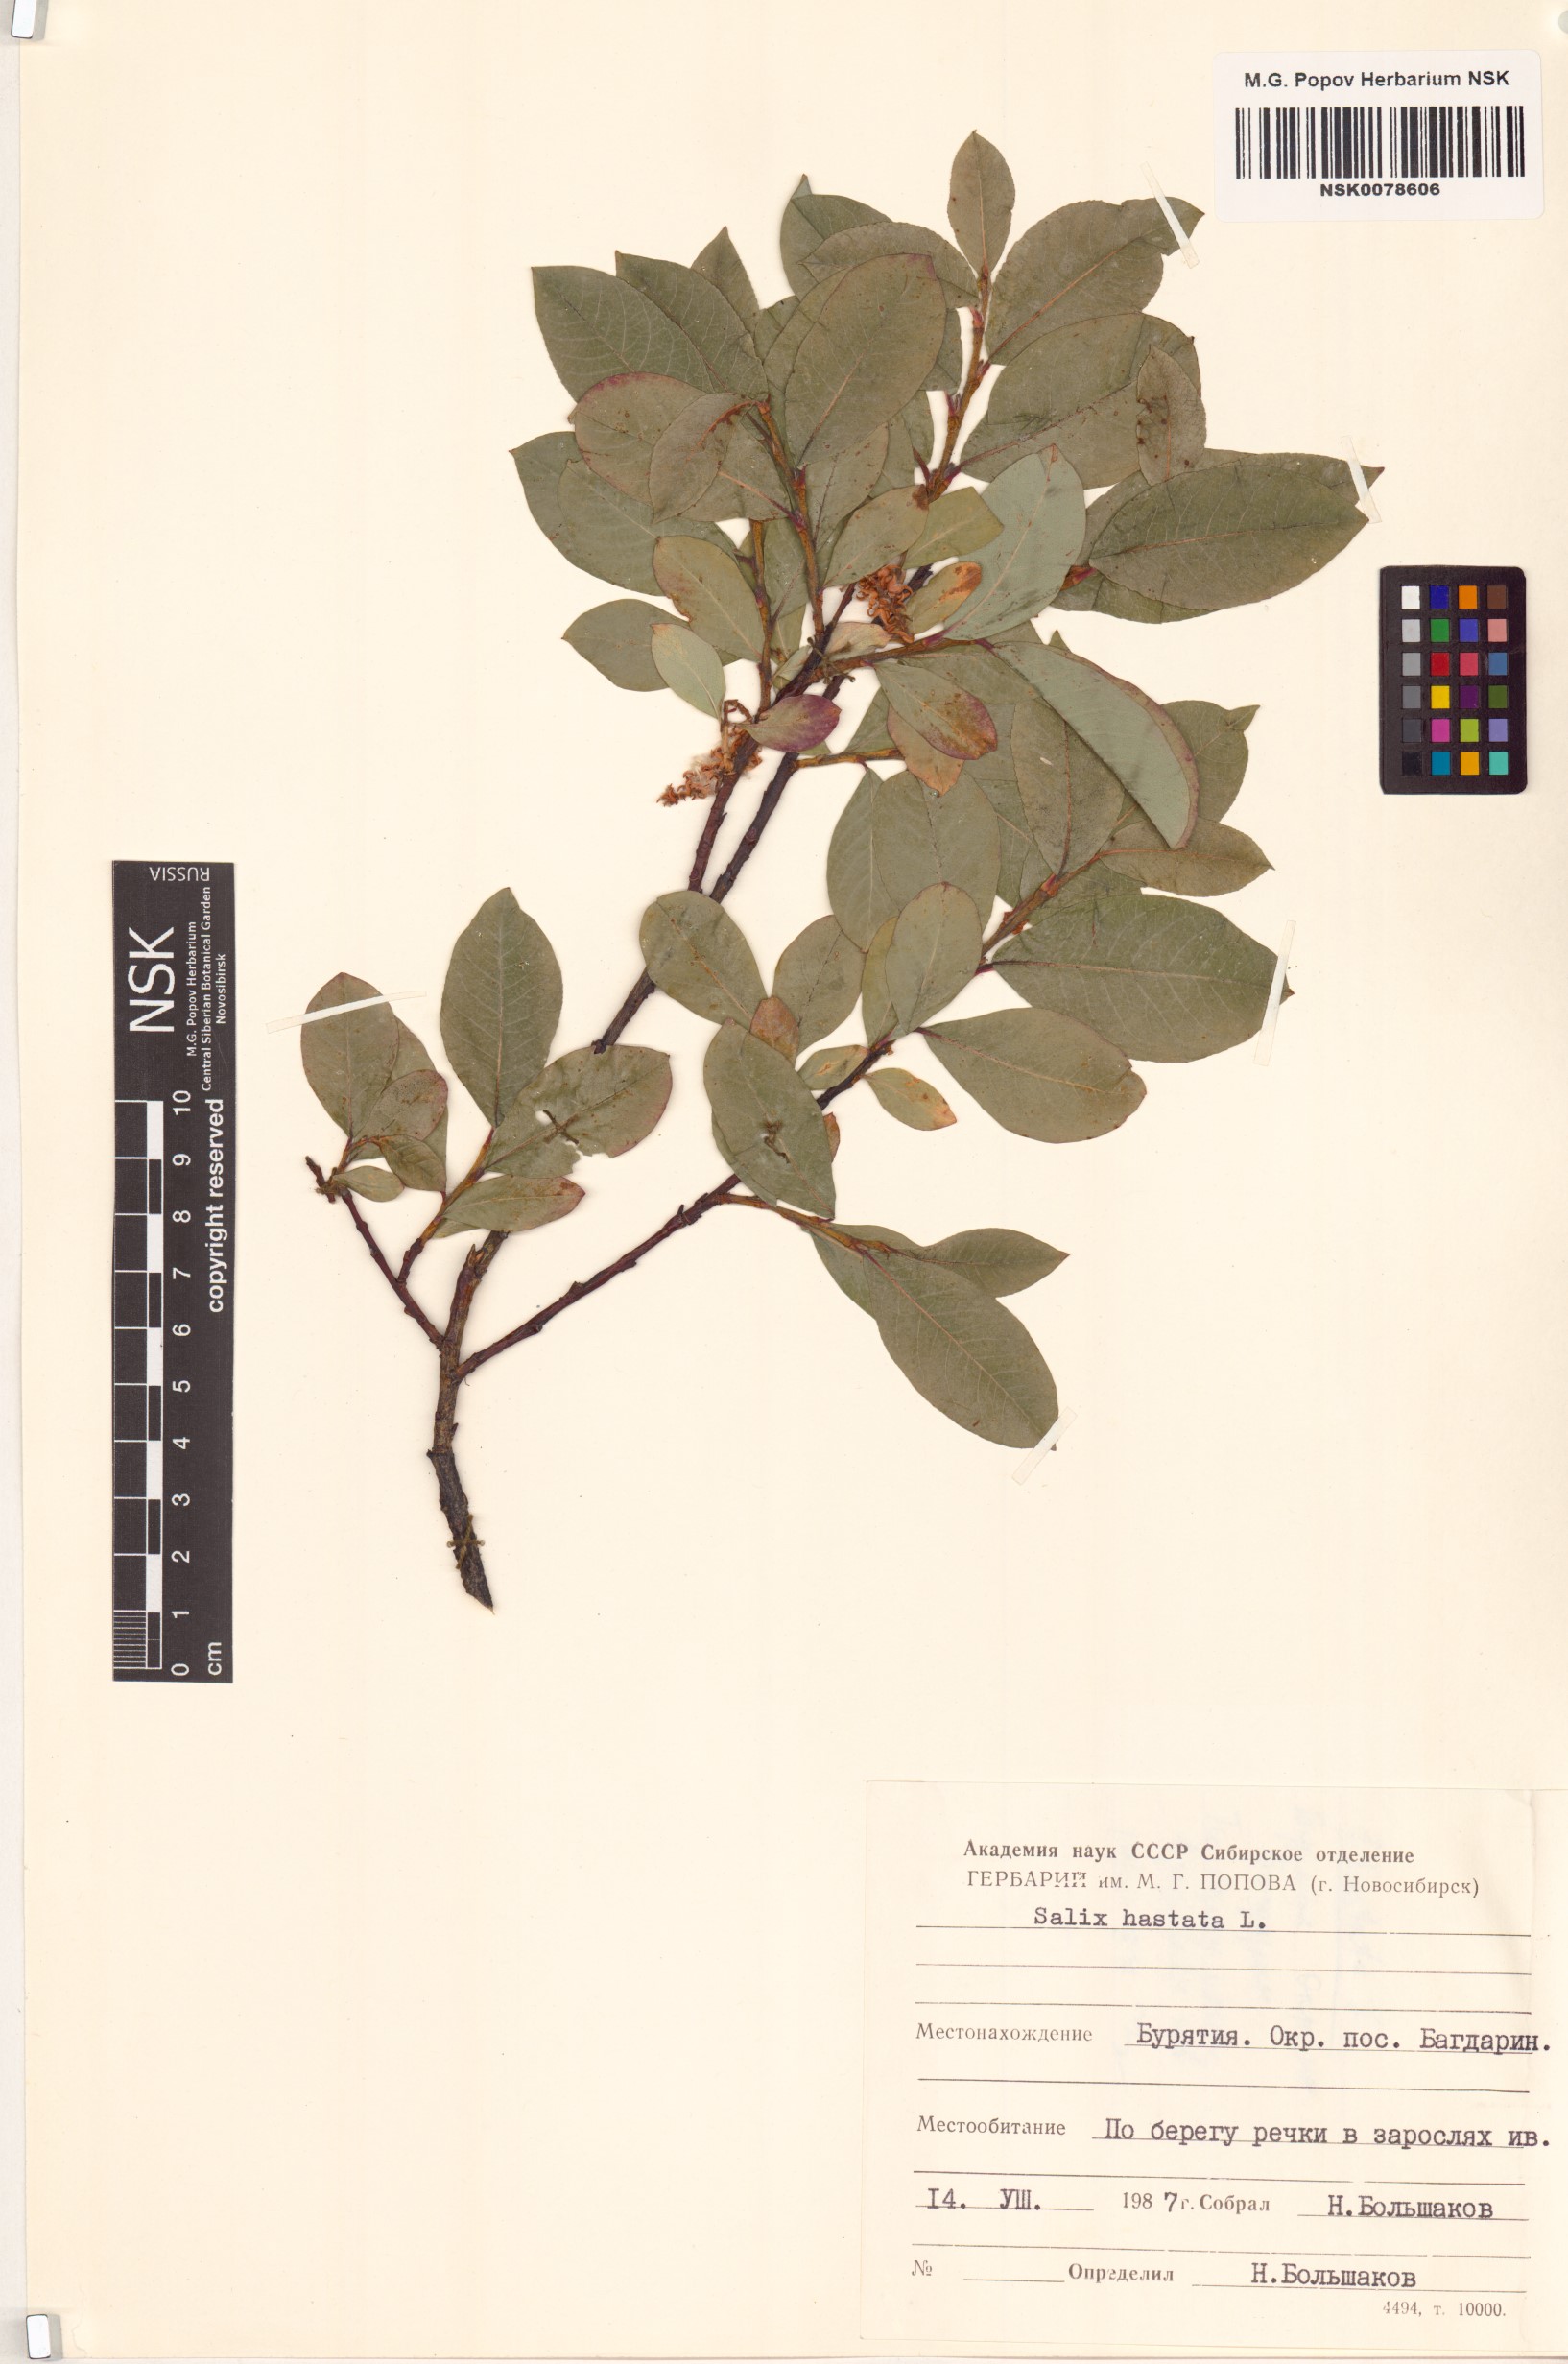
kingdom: Plantae
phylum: Tracheophyta
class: Magnoliopsida
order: Malpighiales
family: Salicaceae
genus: Salix
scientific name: Salix hastata
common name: Halberd willow
